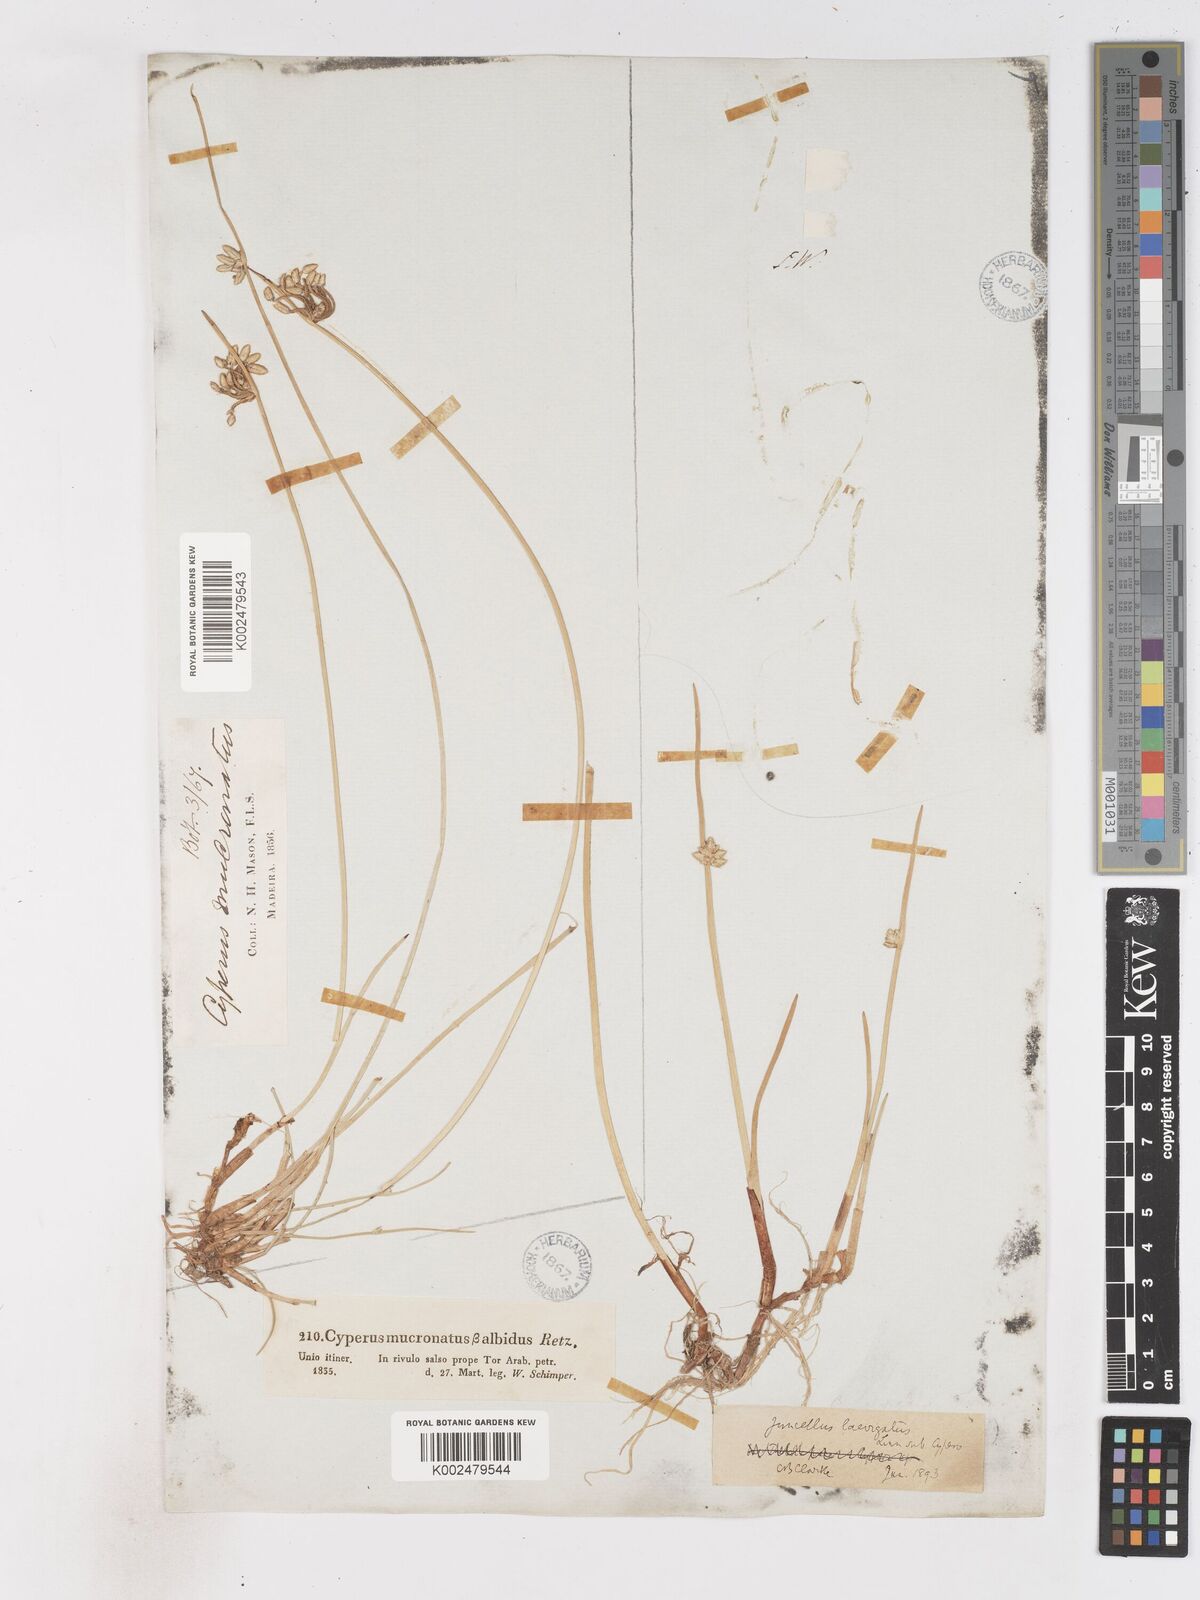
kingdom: Plantae
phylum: Tracheophyta
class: Liliopsida
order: Poales
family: Cyperaceae
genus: Cyperus
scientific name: Cyperus laevigatus
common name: Smooth flat sedge
